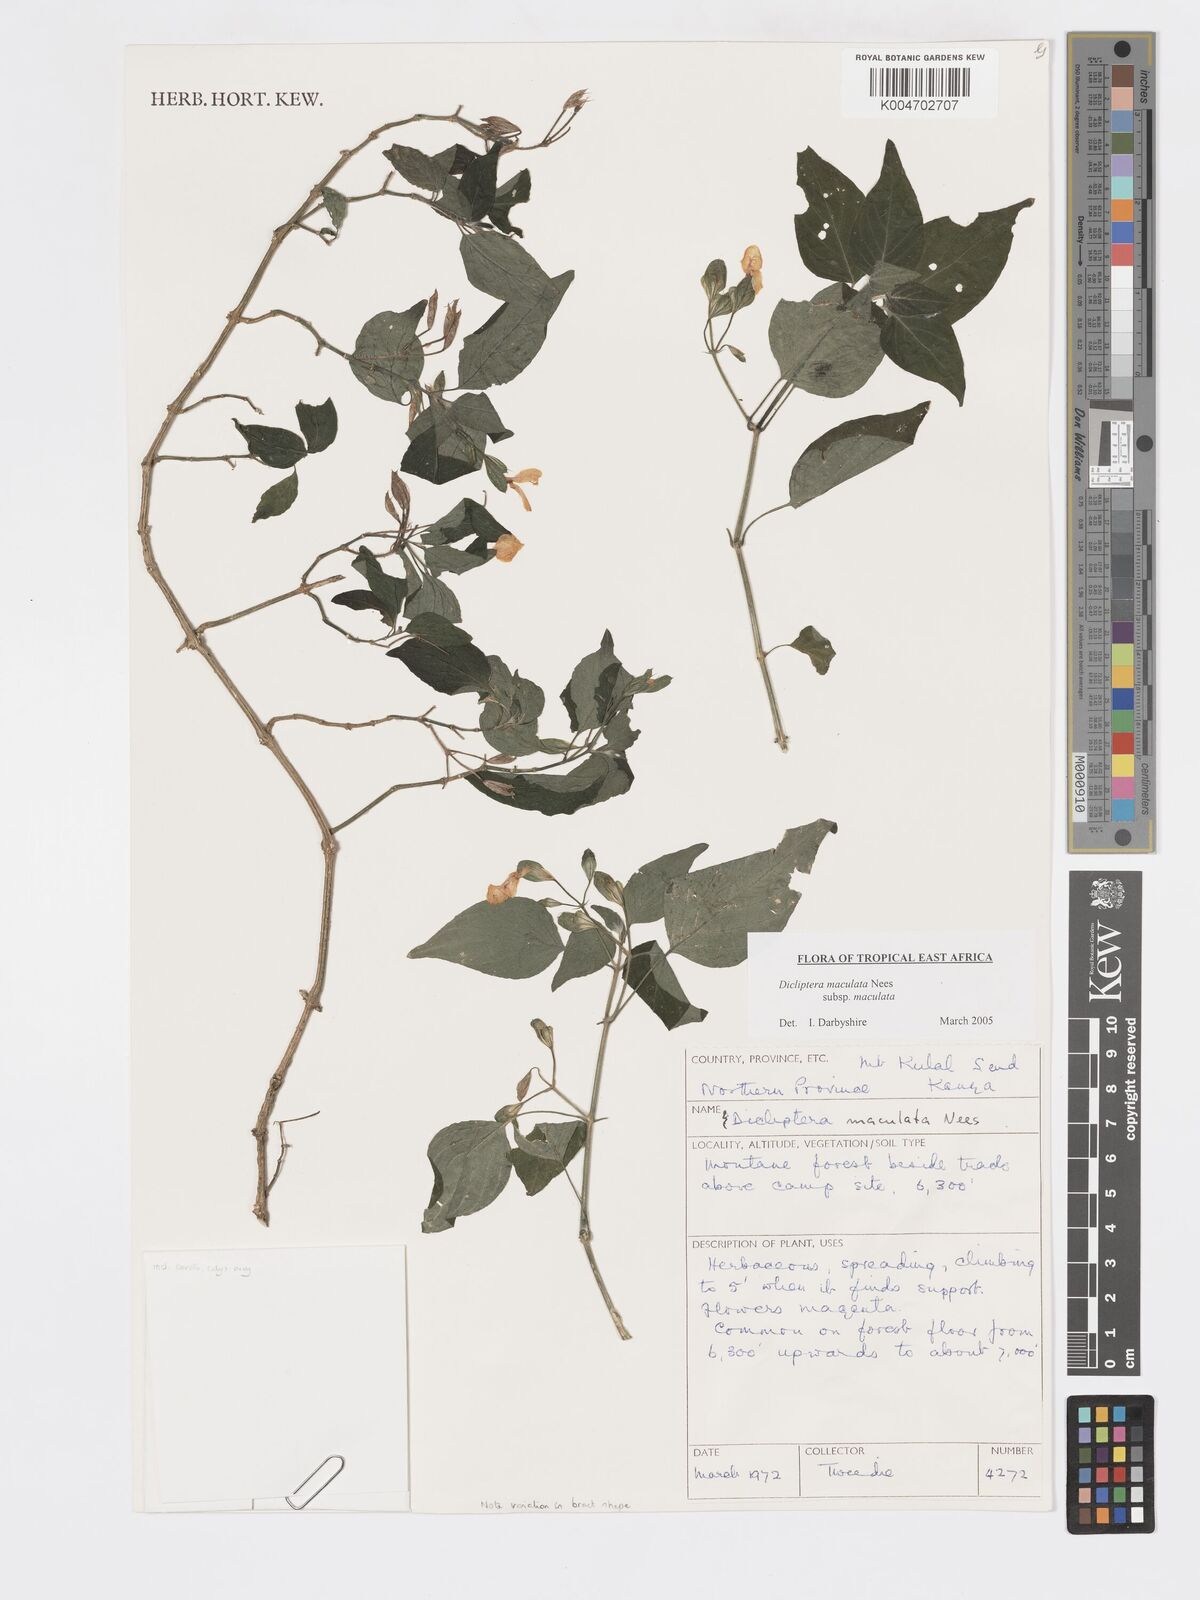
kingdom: Plantae
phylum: Tracheophyta
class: Magnoliopsida
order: Lamiales
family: Acanthaceae
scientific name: Acanthaceae
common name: Acanthaceae
